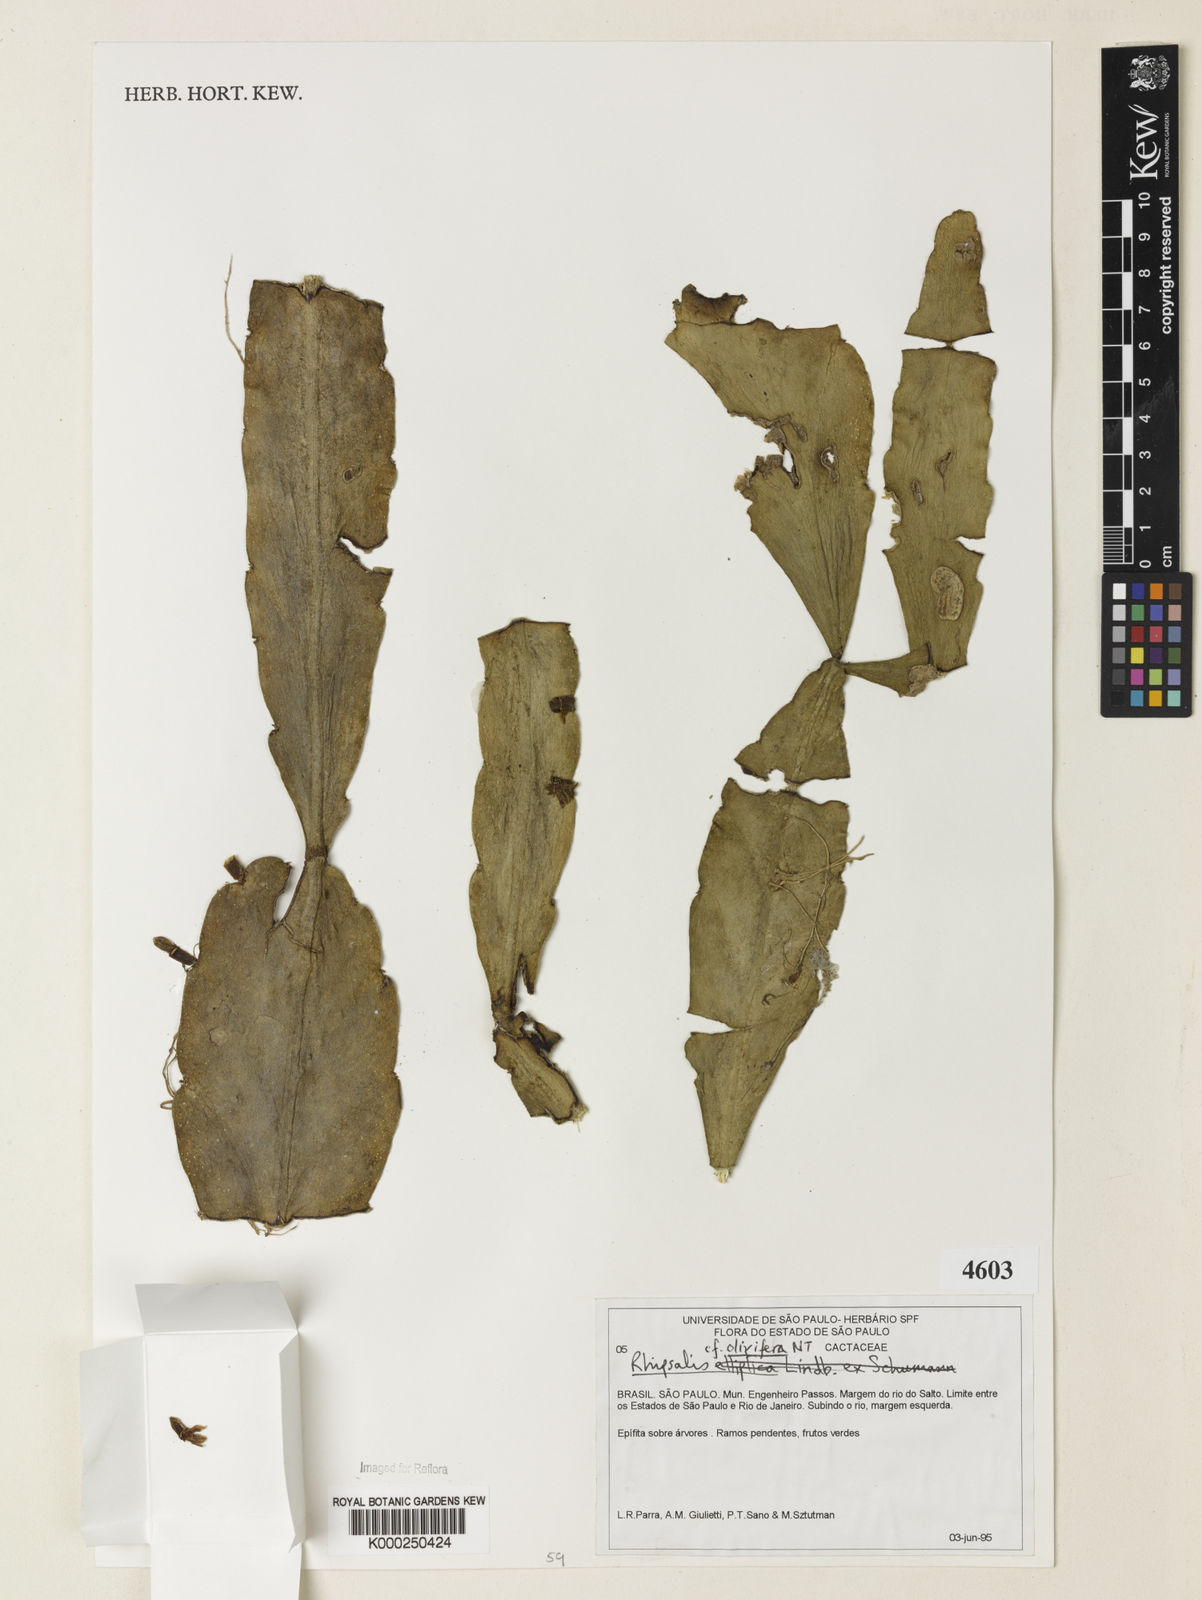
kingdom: Plantae
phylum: Tracheophyta
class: Magnoliopsida
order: Caryophyllales
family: Cactaceae
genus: Rhipsalis
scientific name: Rhipsalis olivifera
